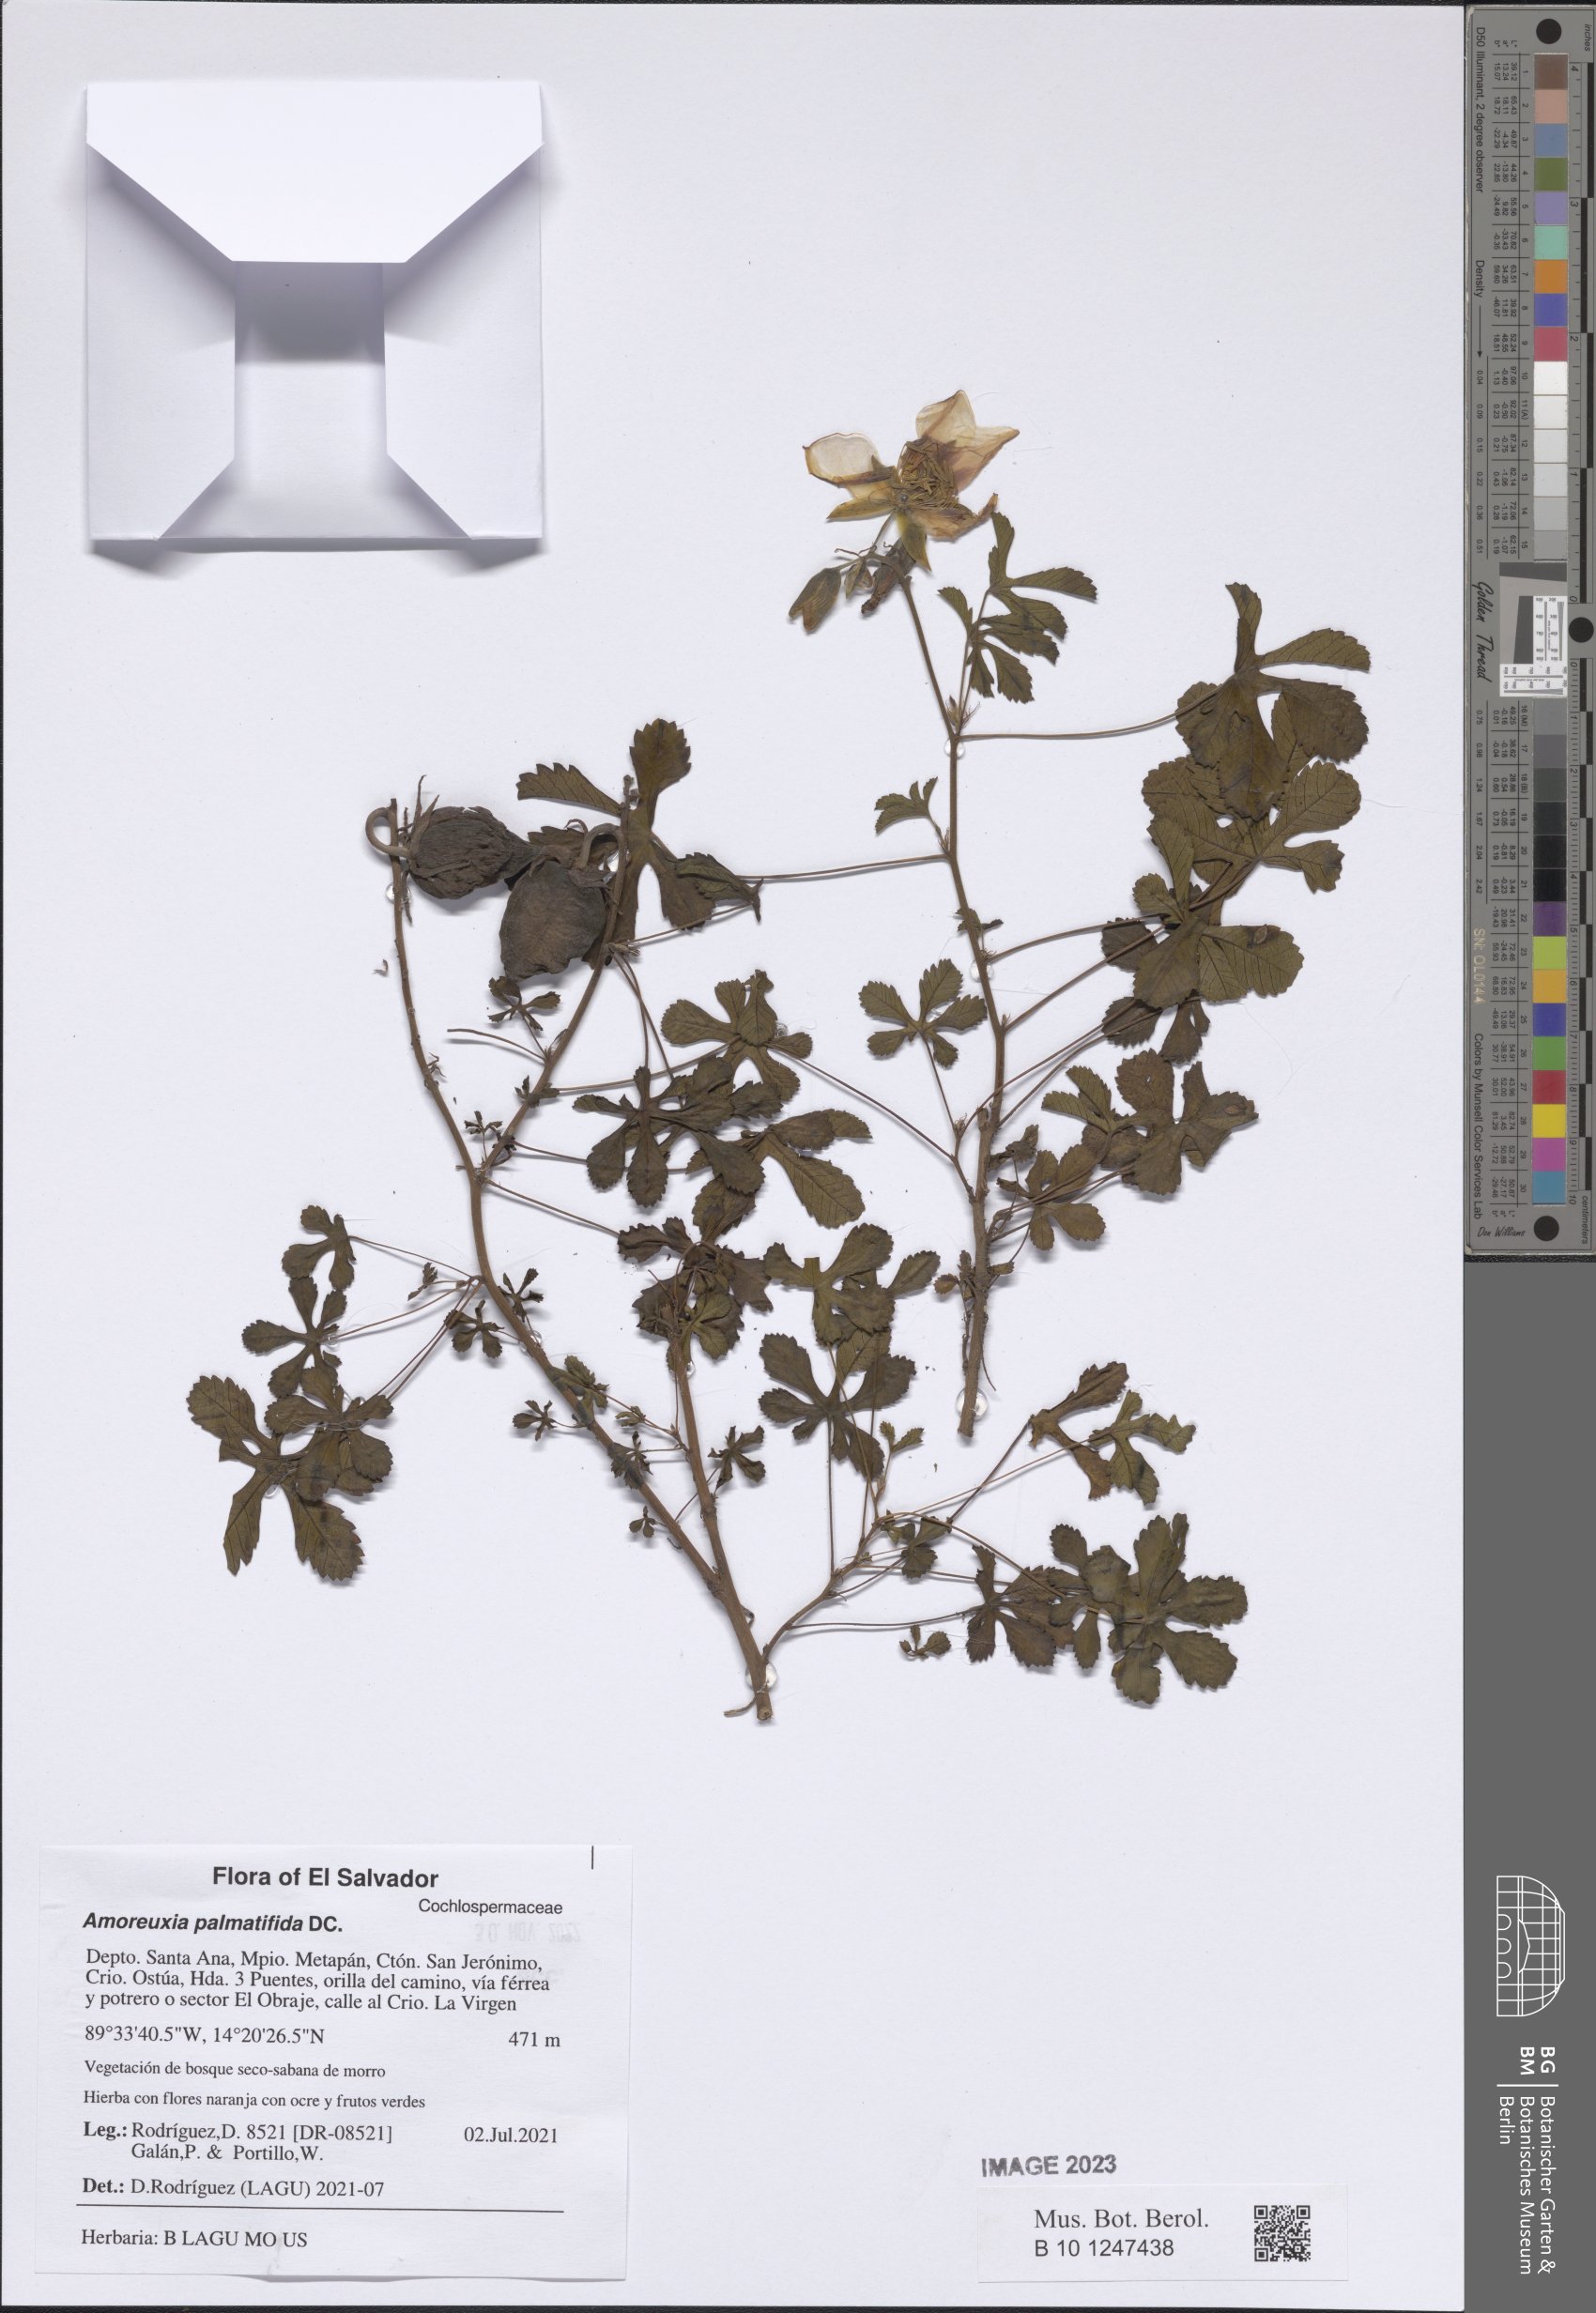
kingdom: Plantae
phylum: Tracheophyta
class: Magnoliopsida
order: Malvales
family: Cochlospermaceae
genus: Cochlospermum
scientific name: Cochlospermum palmatifidum
